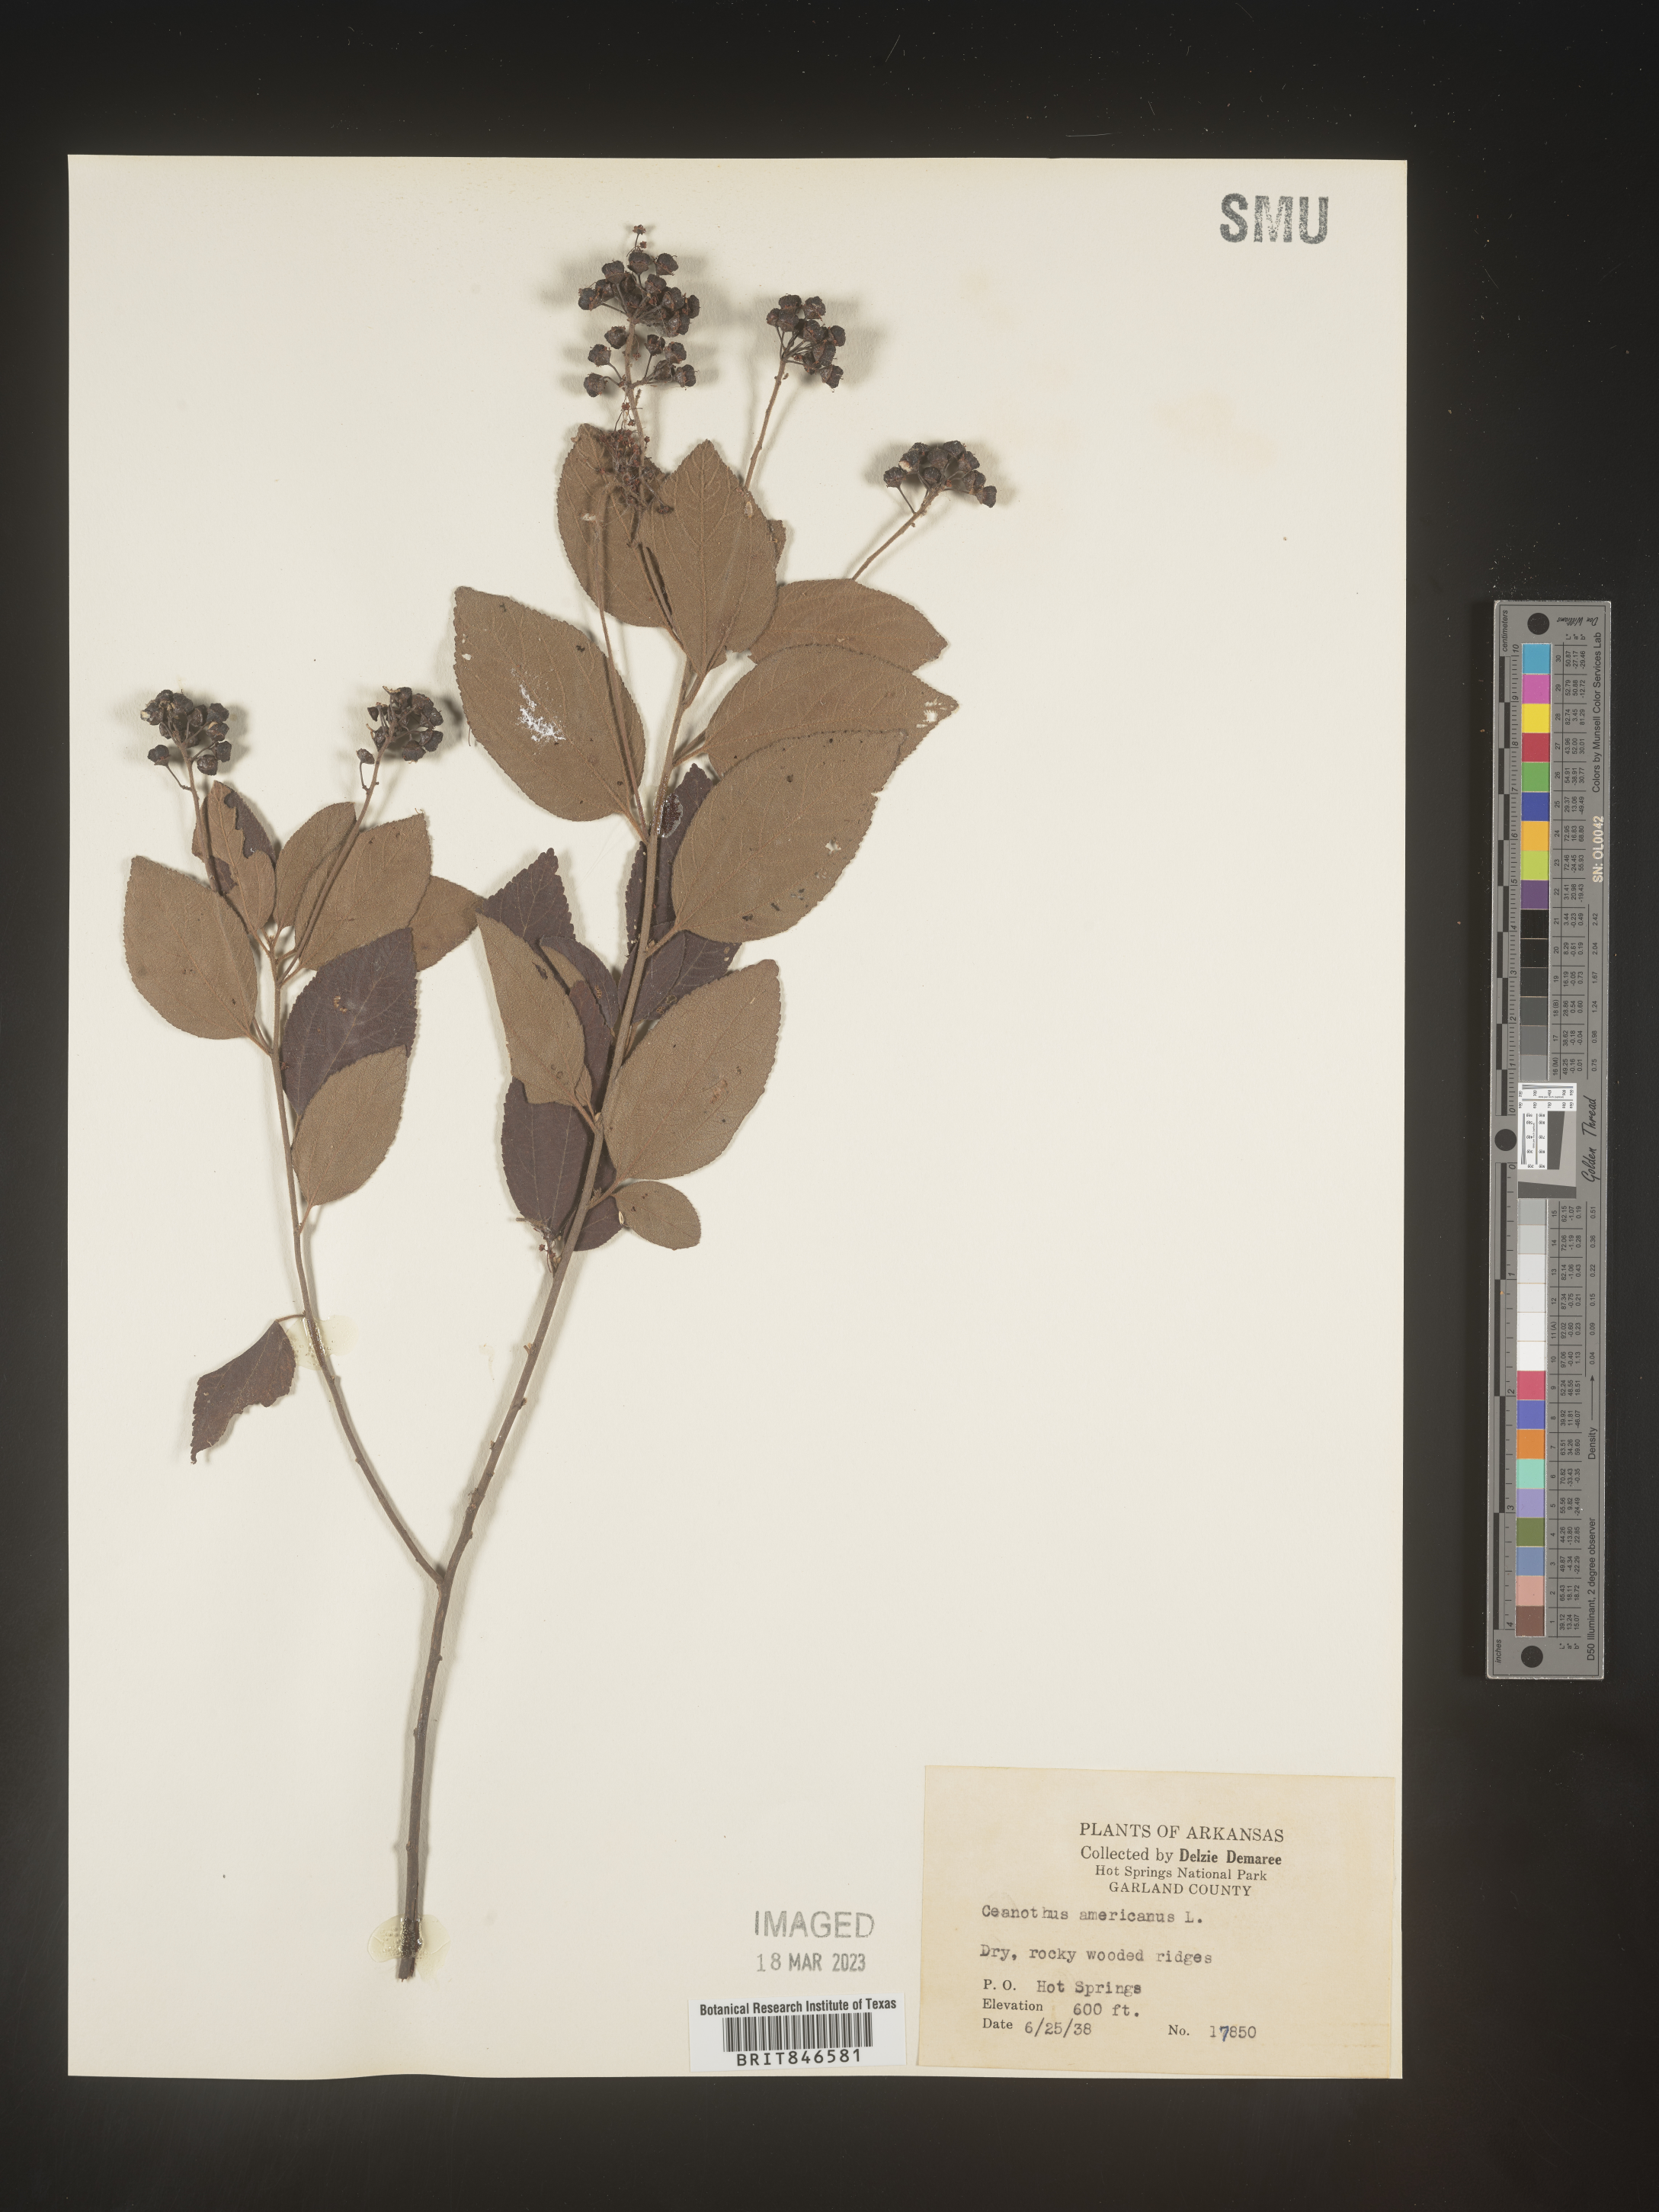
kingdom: Plantae
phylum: Tracheophyta
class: Magnoliopsida
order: Rosales
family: Rhamnaceae
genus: Ceanothus
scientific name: Ceanothus americanus
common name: Redroot
